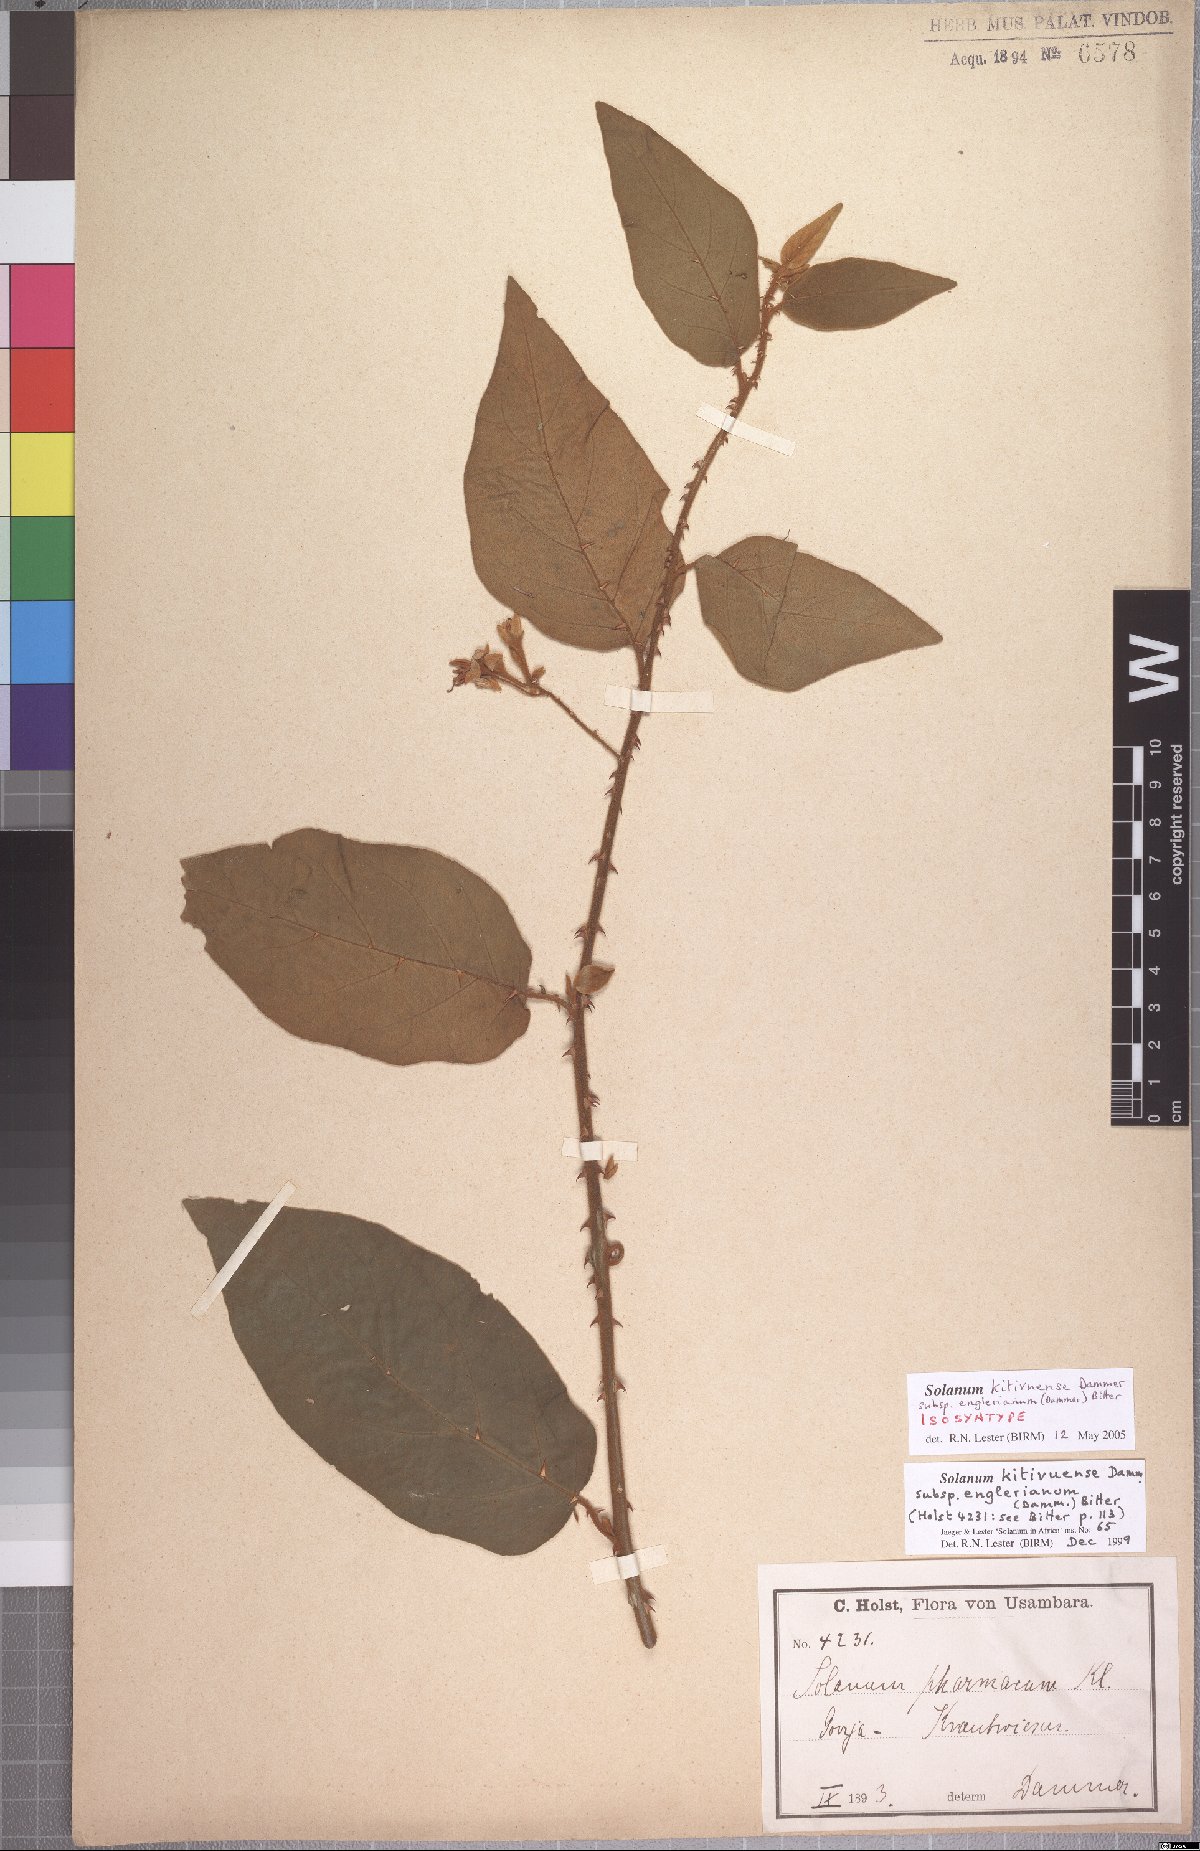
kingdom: Plantae
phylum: Tracheophyta
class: Magnoliopsida
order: Solanales
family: Solanaceae
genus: Solanum
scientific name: Solanum campylacanthum
